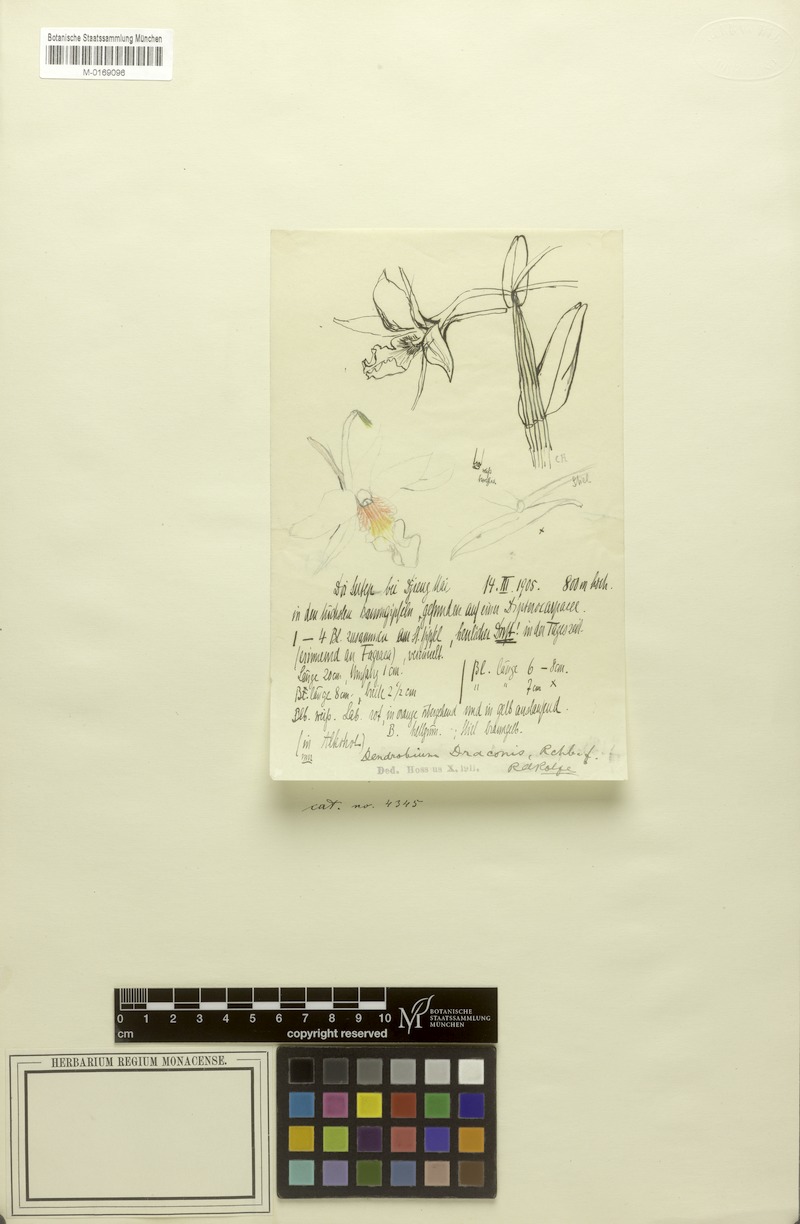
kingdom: Plantae
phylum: Tracheophyta
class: Liliopsida
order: Asparagales
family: Orchidaceae
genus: Dendrobium
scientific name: Dendrobium draconis
